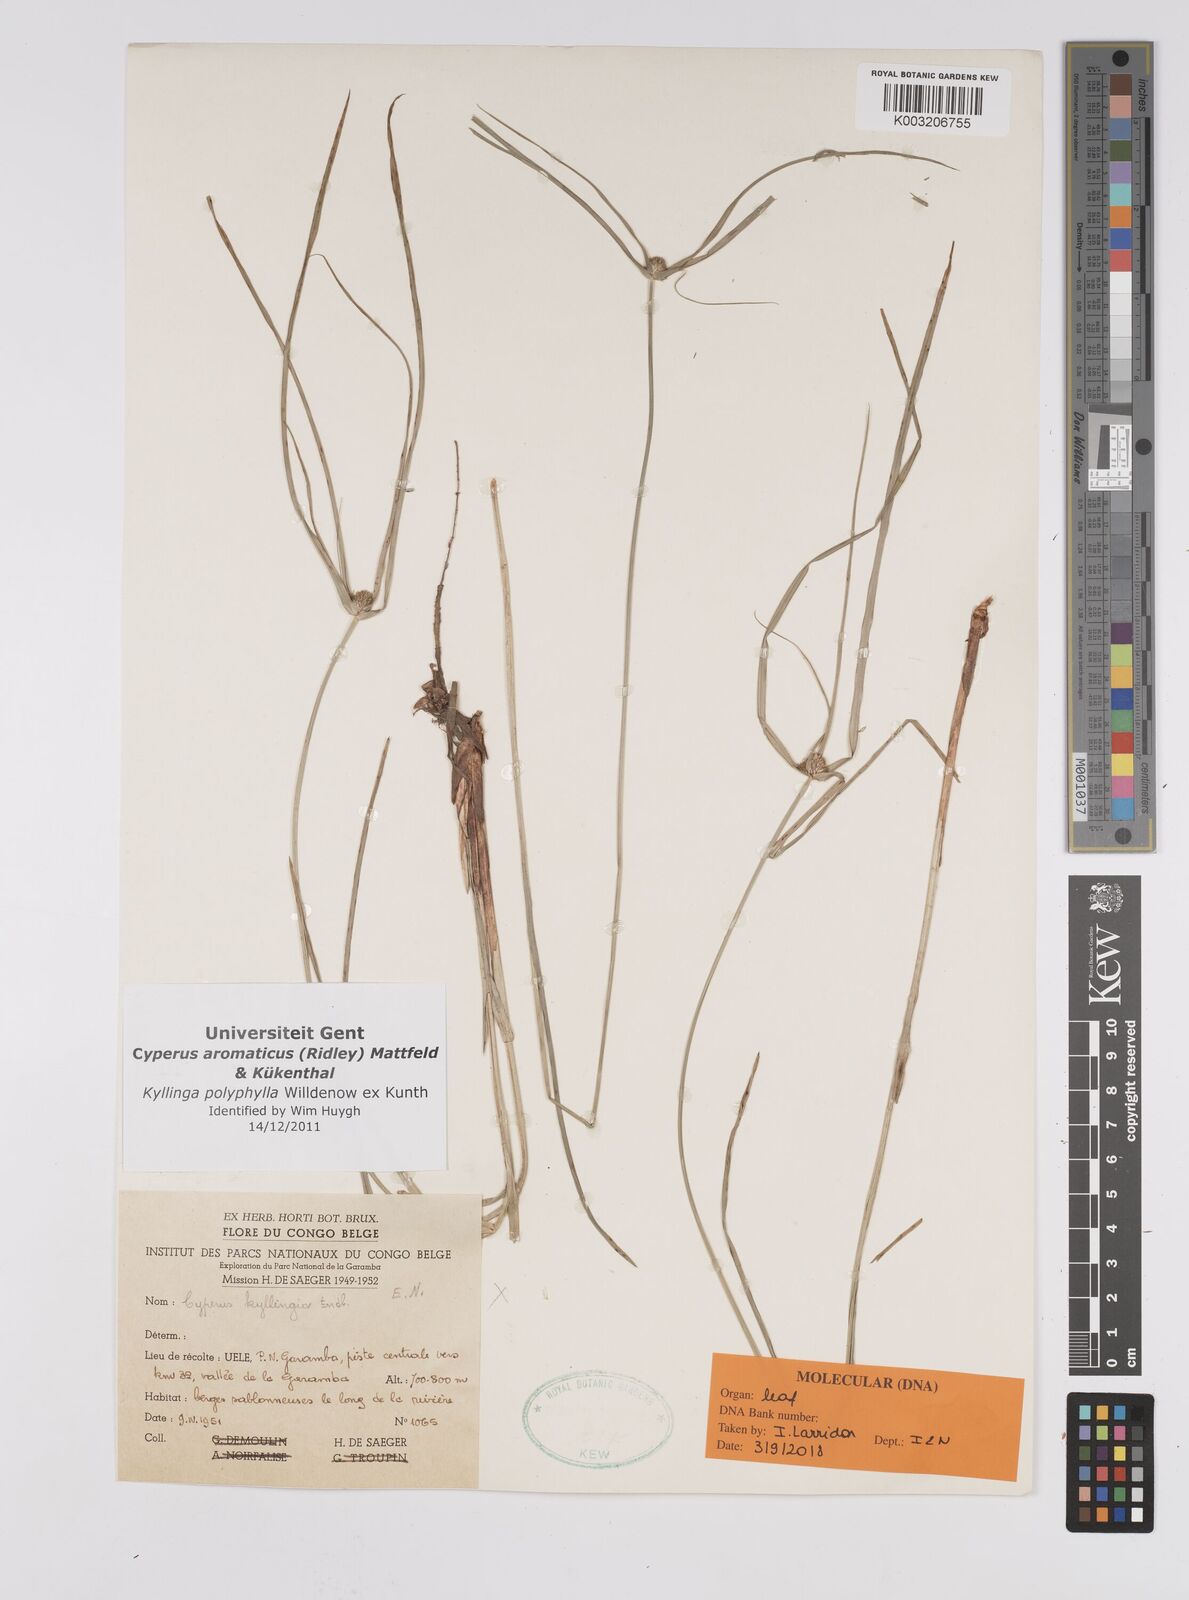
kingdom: Plantae
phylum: Tracheophyta
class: Liliopsida
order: Poales
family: Cyperaceae
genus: Cyperus
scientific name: Cyperus
